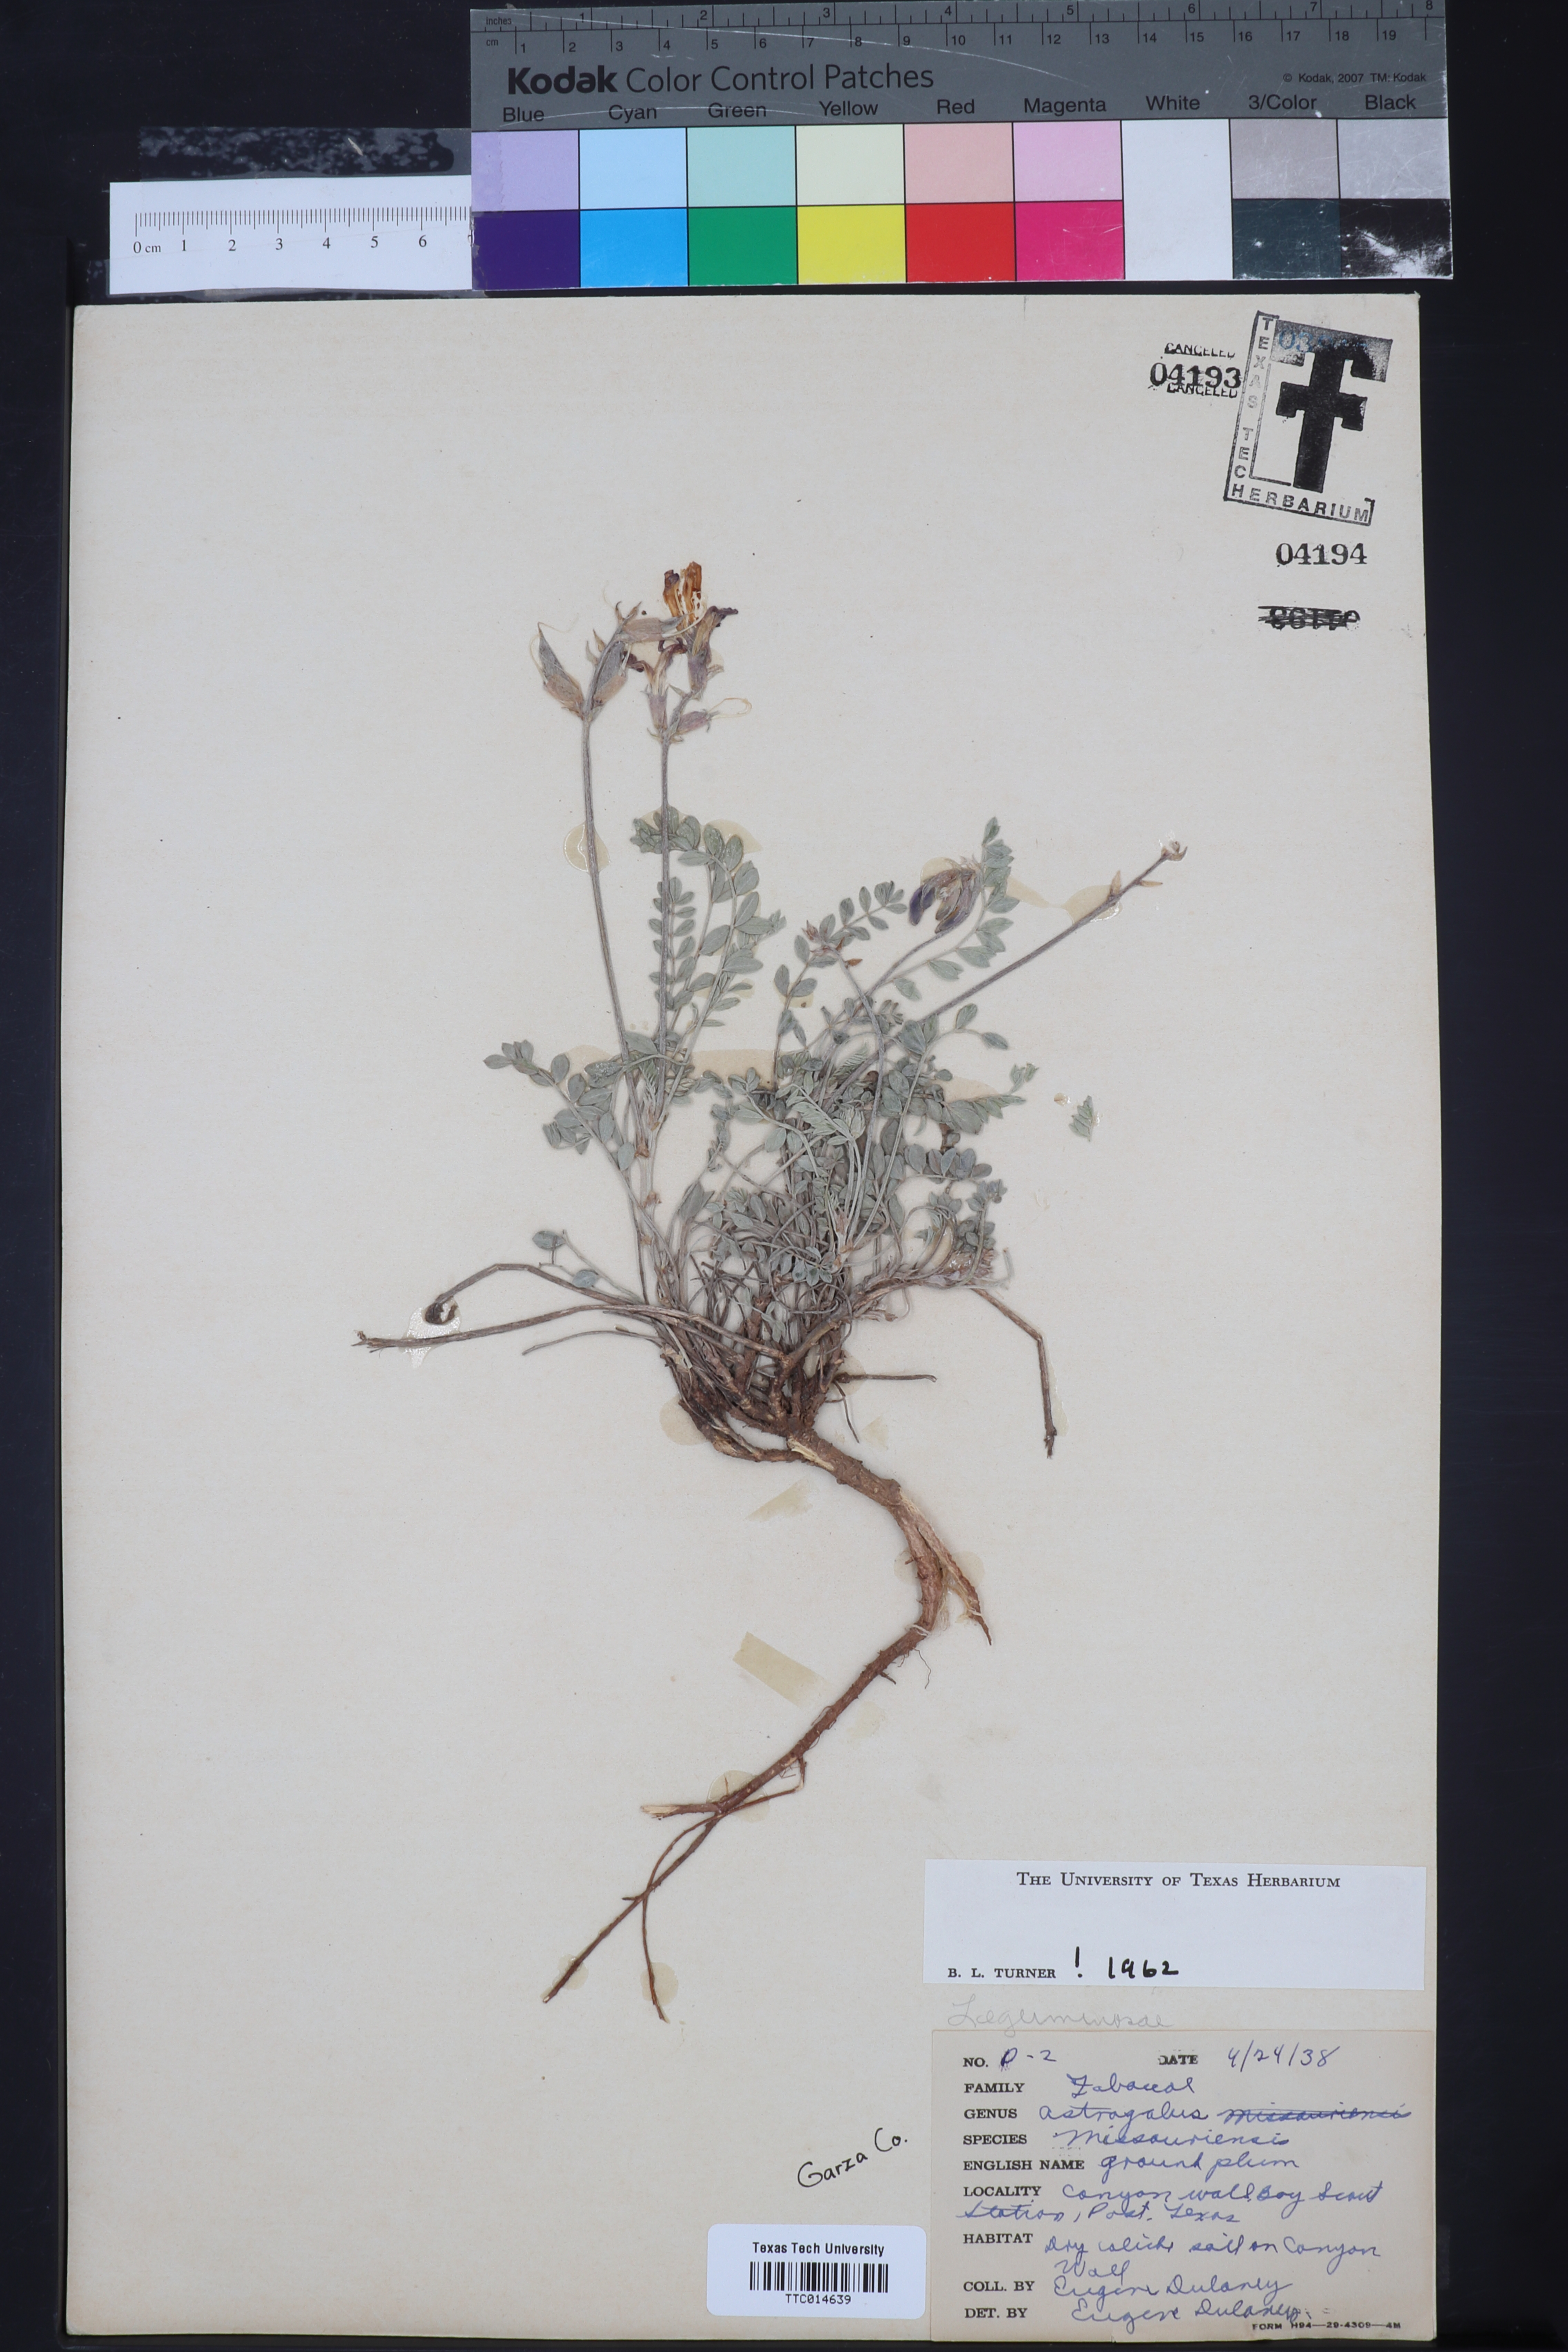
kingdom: Plantae
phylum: Tracheophyta
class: Magnoliopsida
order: Fabales
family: Fabaceae
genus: Astragalus
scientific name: Astragalus missouriensis
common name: Missouri milk-vetch
